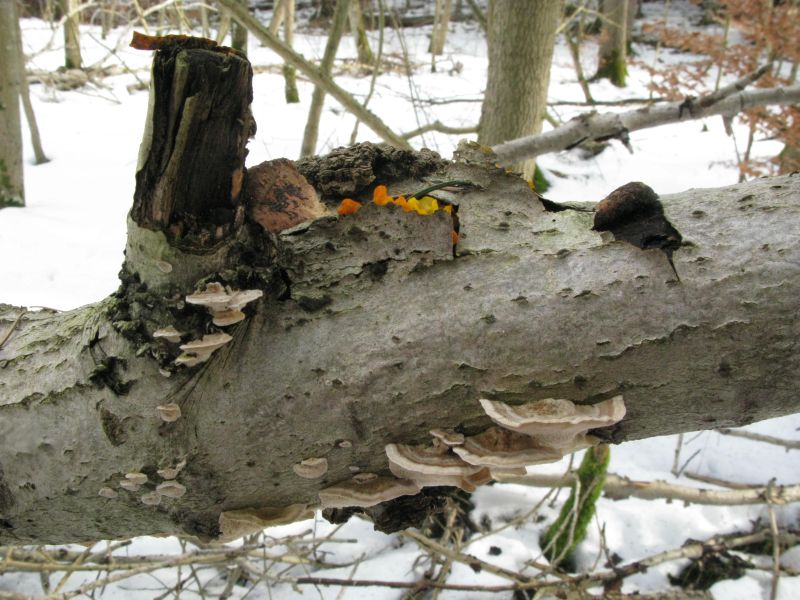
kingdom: Fungi
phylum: Basidiomycota
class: Tremellomycetes
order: Tremellales
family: Tremellaceae
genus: Tremella
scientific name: Tremella mesenterica
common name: gul bævresvamp
